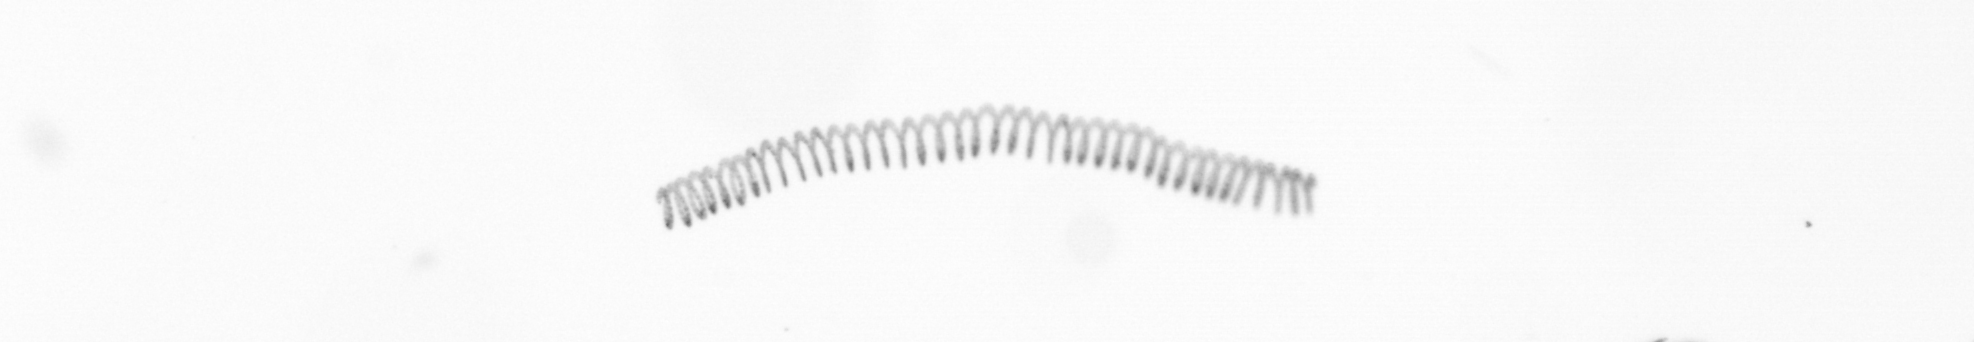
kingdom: Chromista
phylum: Ochrophyta
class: Bacillariophyceae
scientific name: Bacillariophyceae
